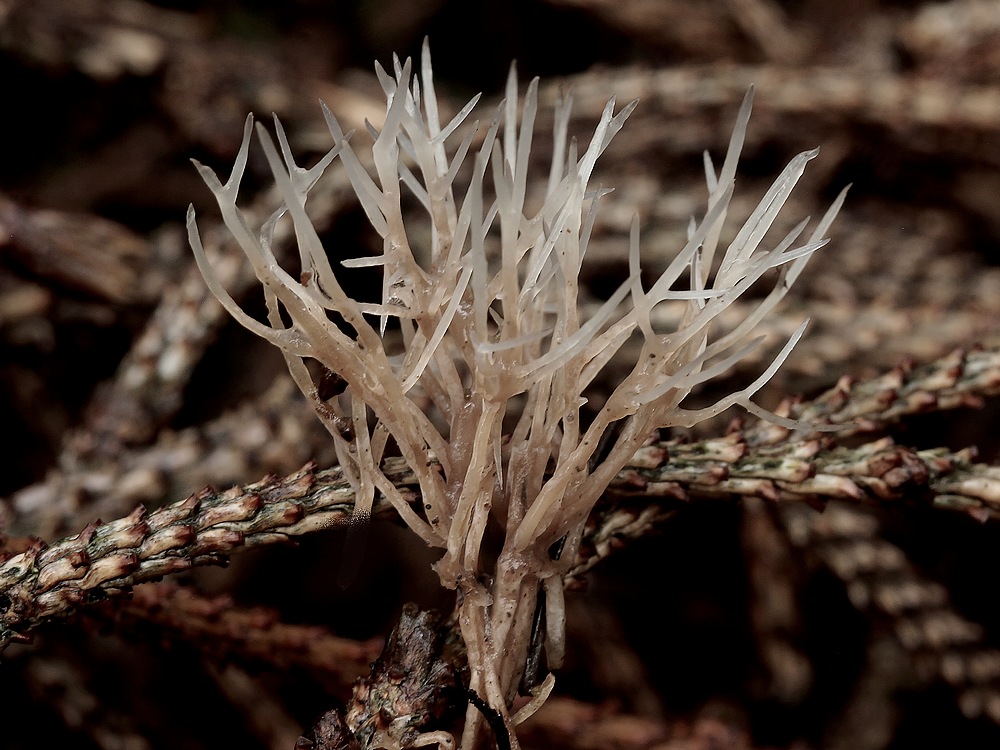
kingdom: Fungi
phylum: Basidiomycota
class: Agaricomycetes
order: Agaricales
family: Pterulaceae
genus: Pterula
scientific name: Pterula multifida
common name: busket fjerkølle
